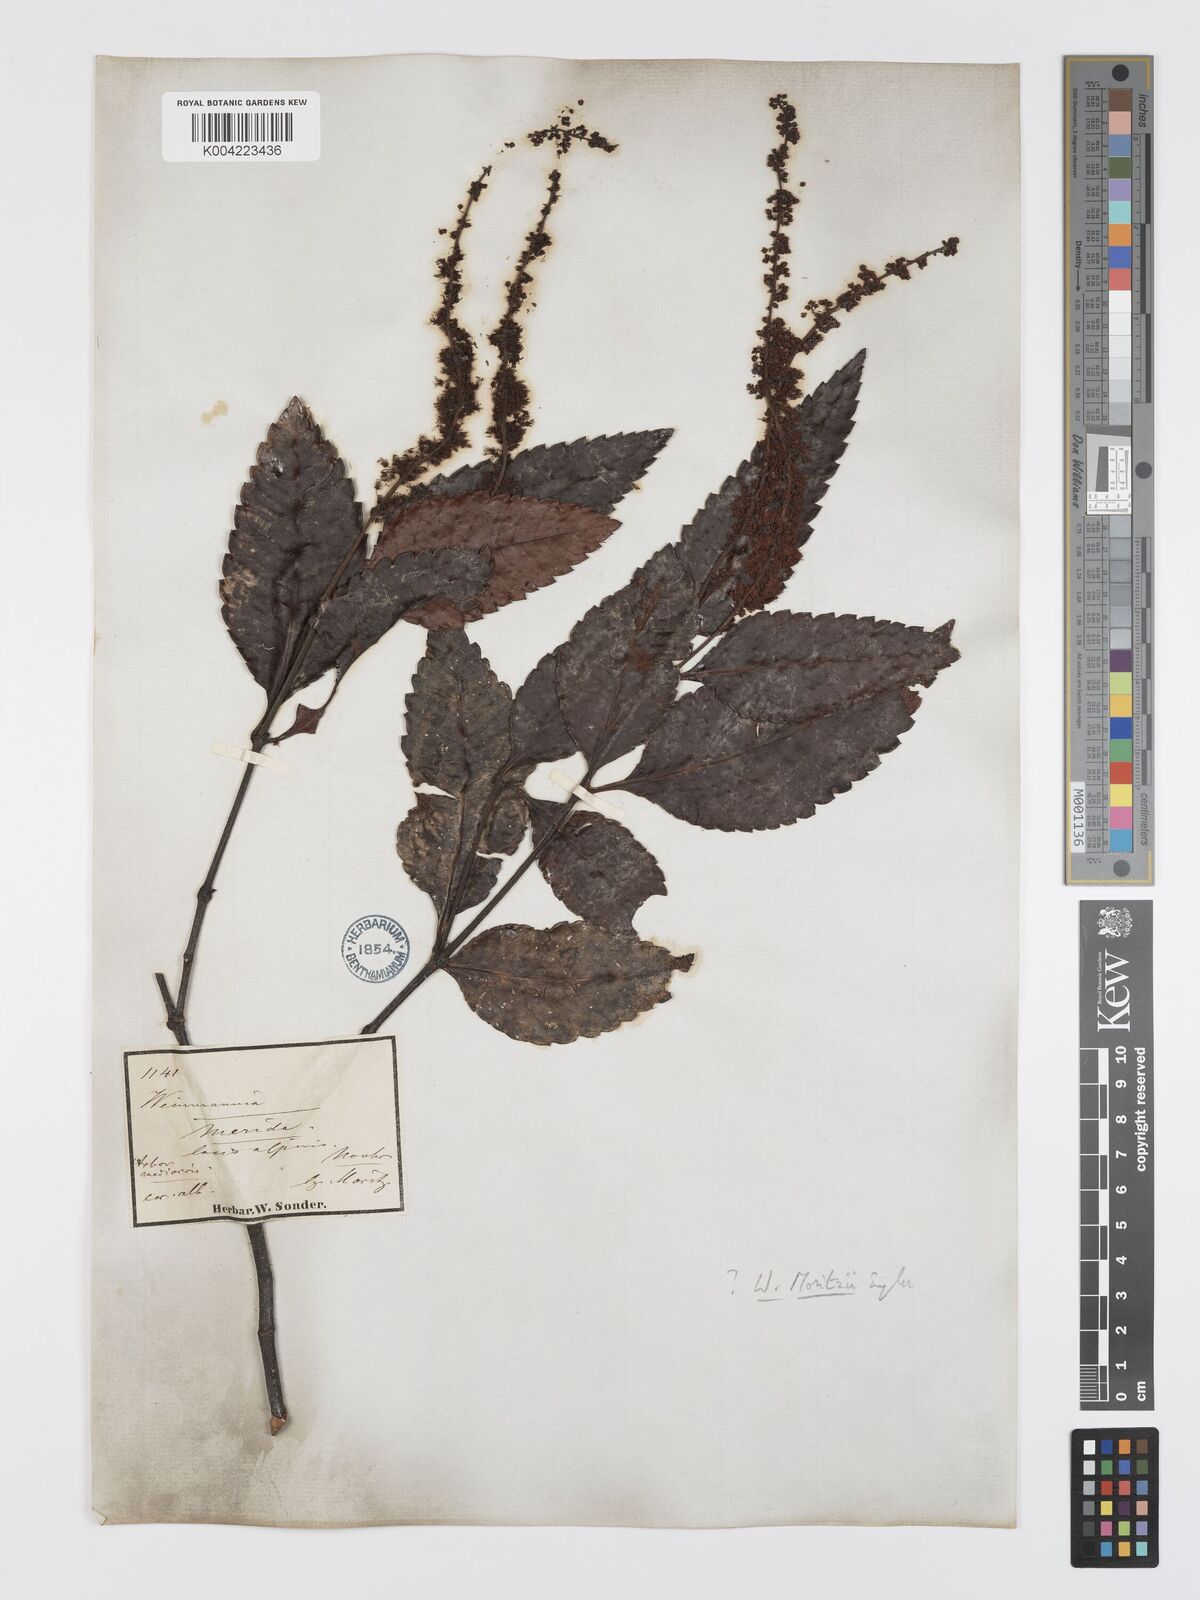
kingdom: Plantae
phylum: Tracheophyta
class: Magnoliopsida
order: Oxalidales
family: Cunoniaceae
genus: Weinmannia
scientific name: Weinmannia balbisana
